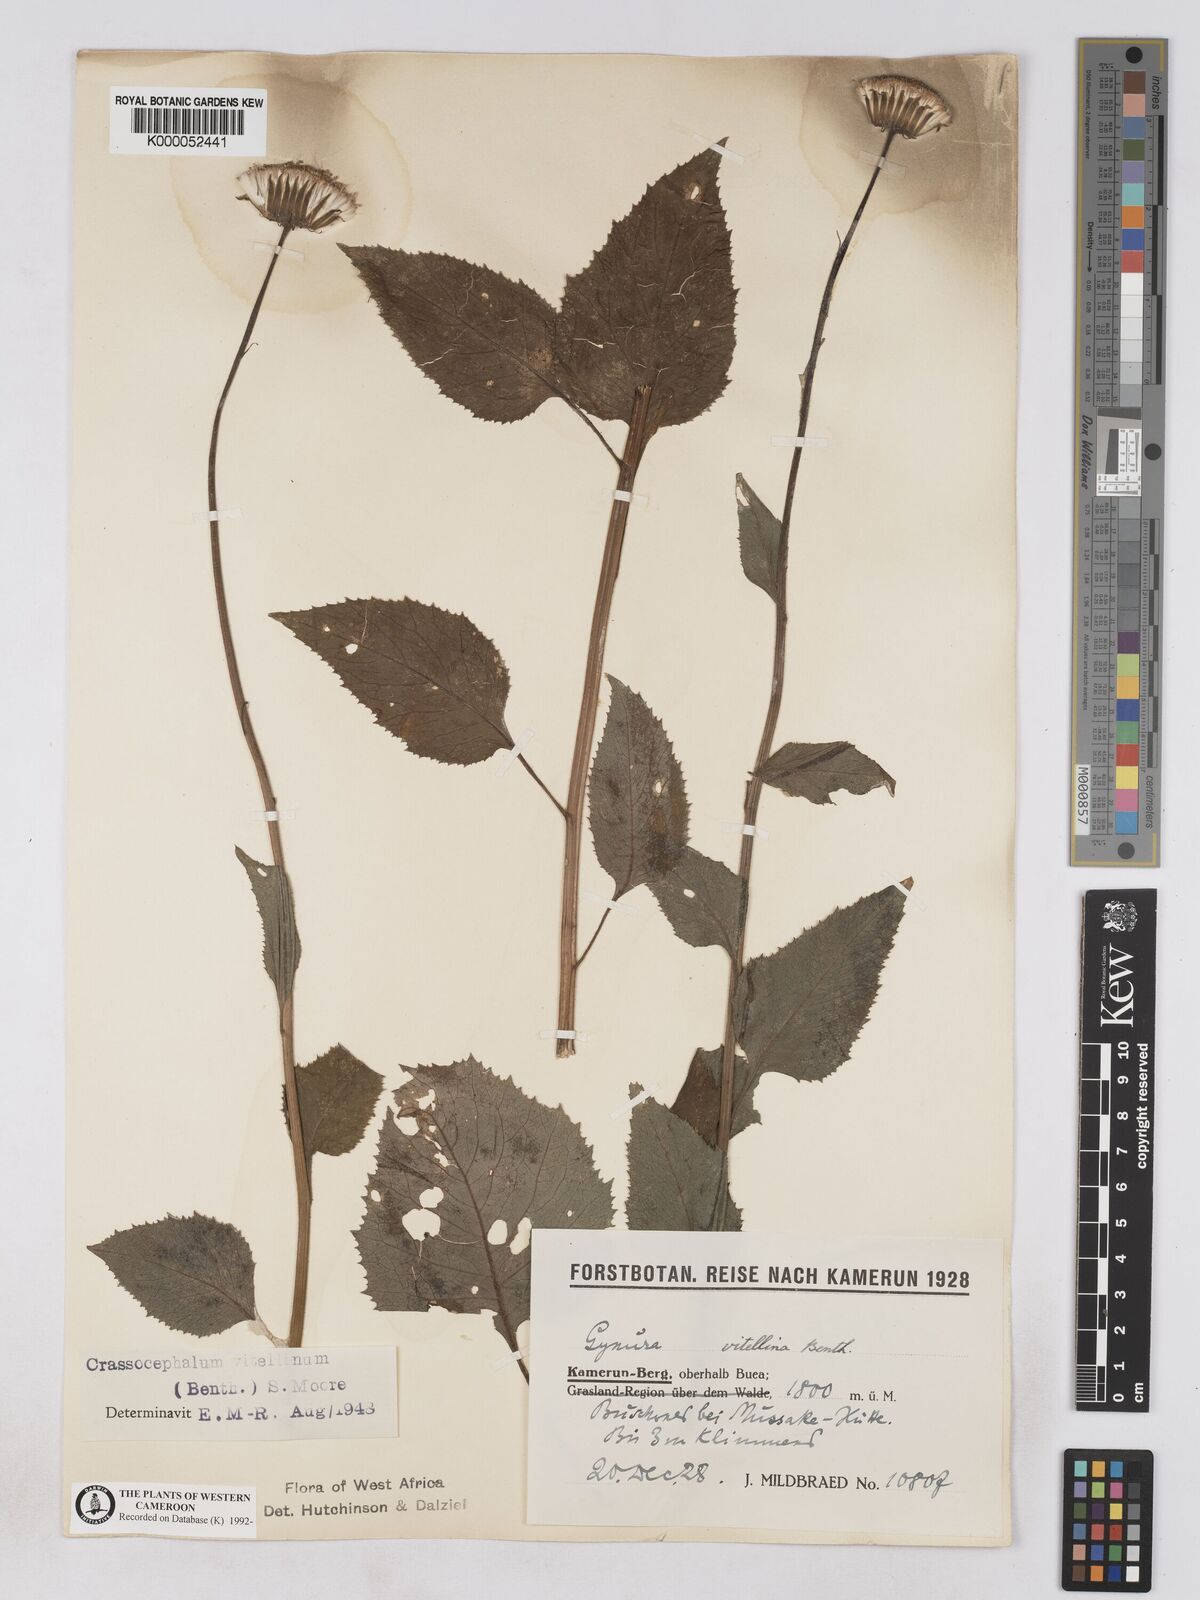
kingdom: Plantae
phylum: Tracheophyta
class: Magnoliopsida
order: Asterales
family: Asteraceae
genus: Crassocephalum
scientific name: Crassocephalum bougheyanum
